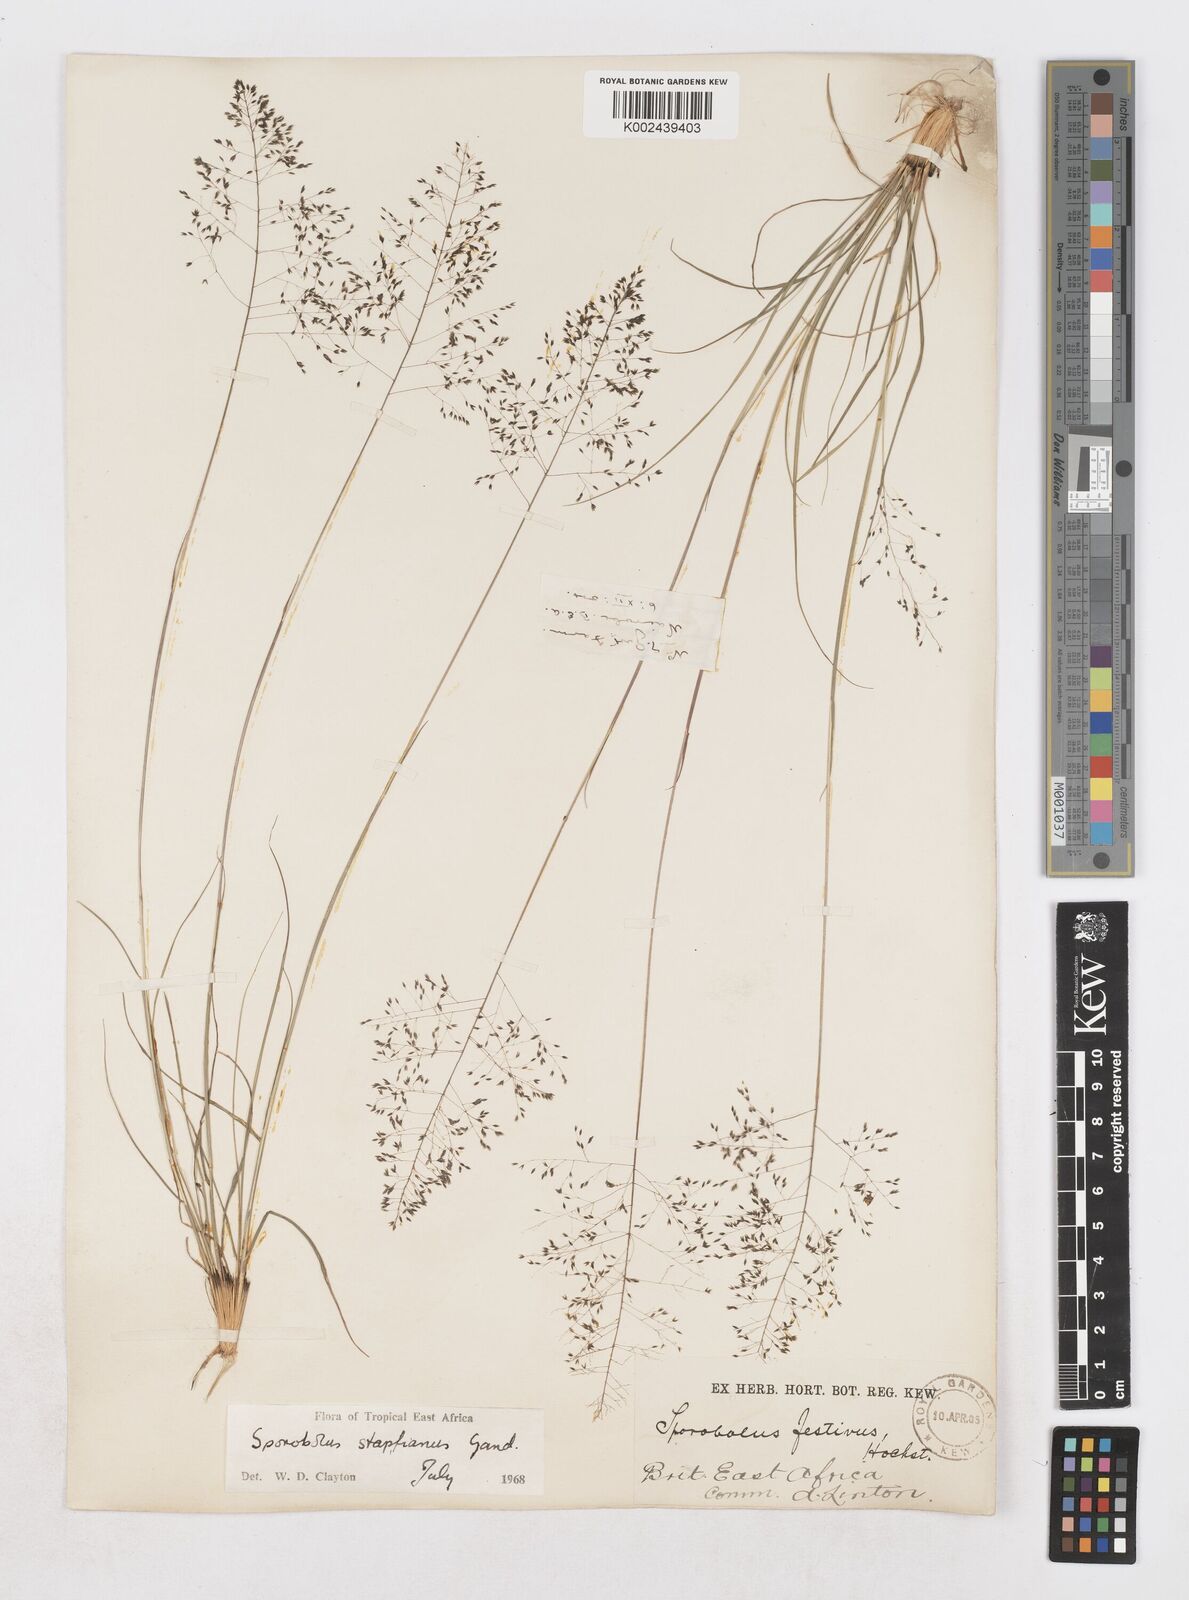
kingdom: Plantae
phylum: Tracheophyta
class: Liliopsida
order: Poales
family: Poaceae
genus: Sporobolus
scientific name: Sporobolus stapfianus
